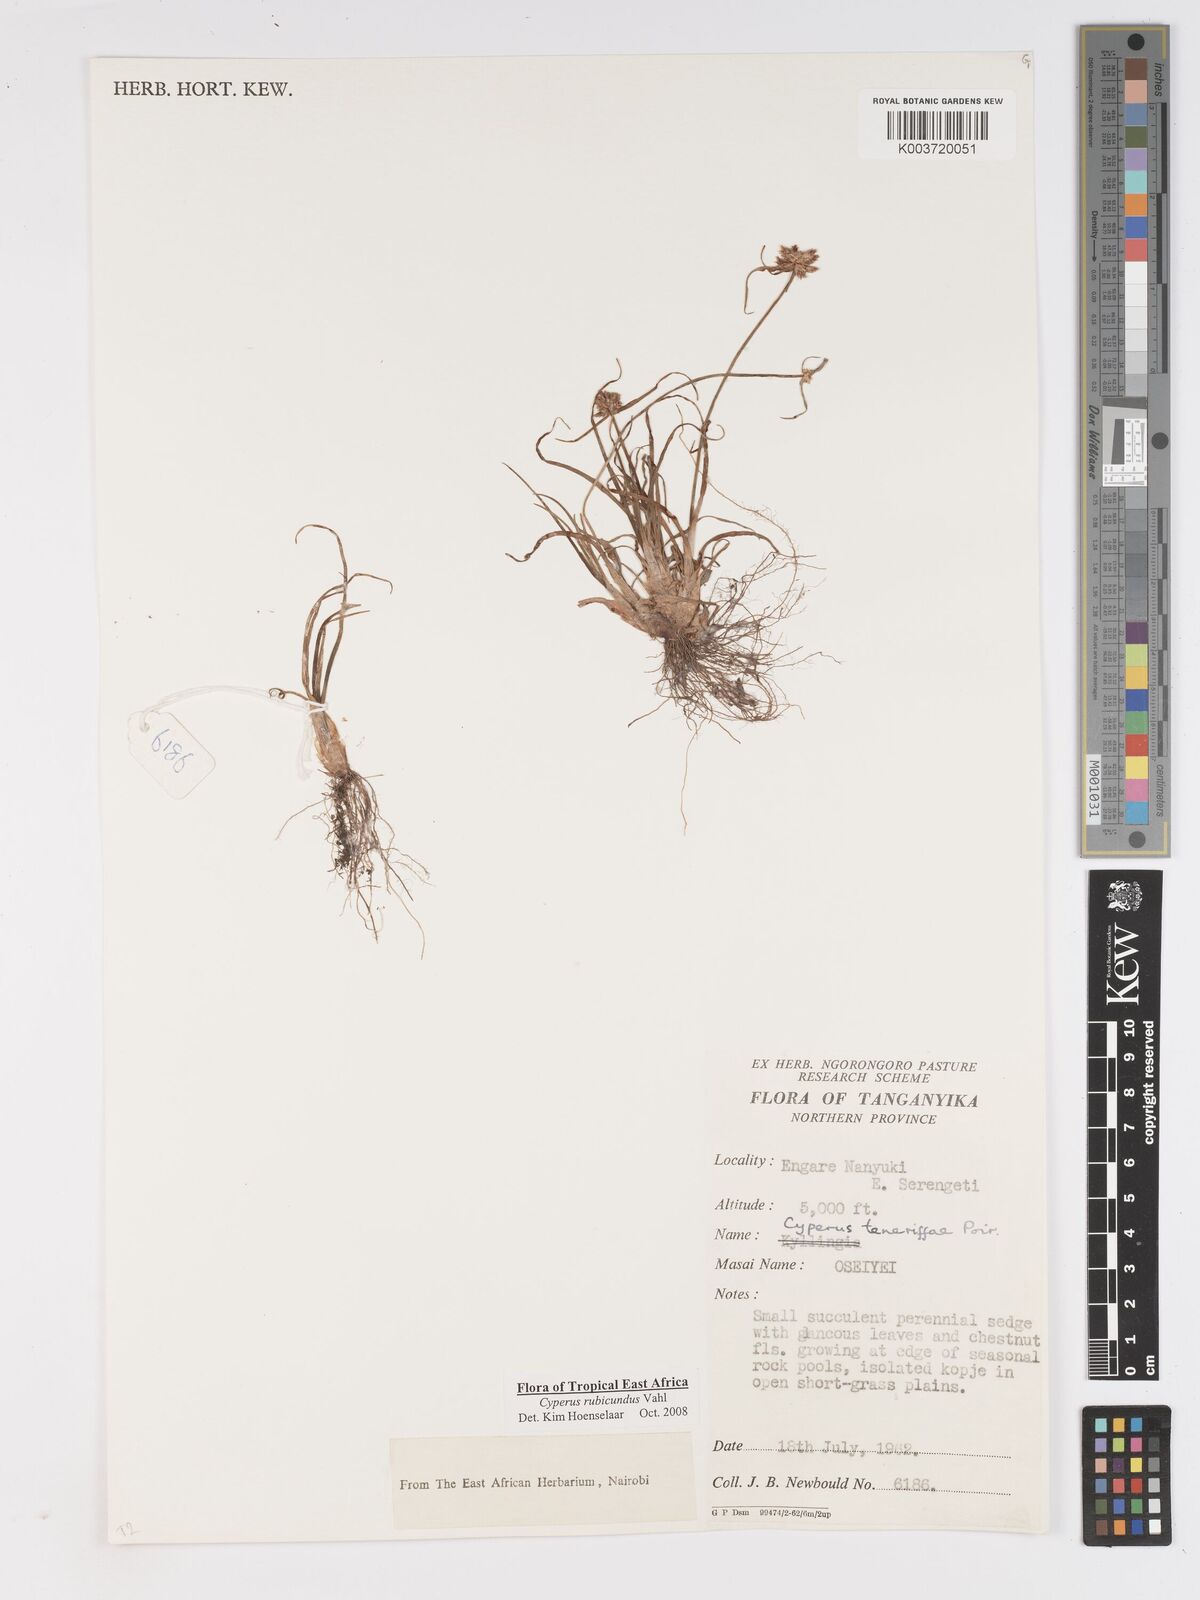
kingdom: Plantae
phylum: Tracheophyta
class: Liliopsida
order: Poales
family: Cyperaceae
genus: Cyperus
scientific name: Cyperus rubicundus
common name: Coco-grass
